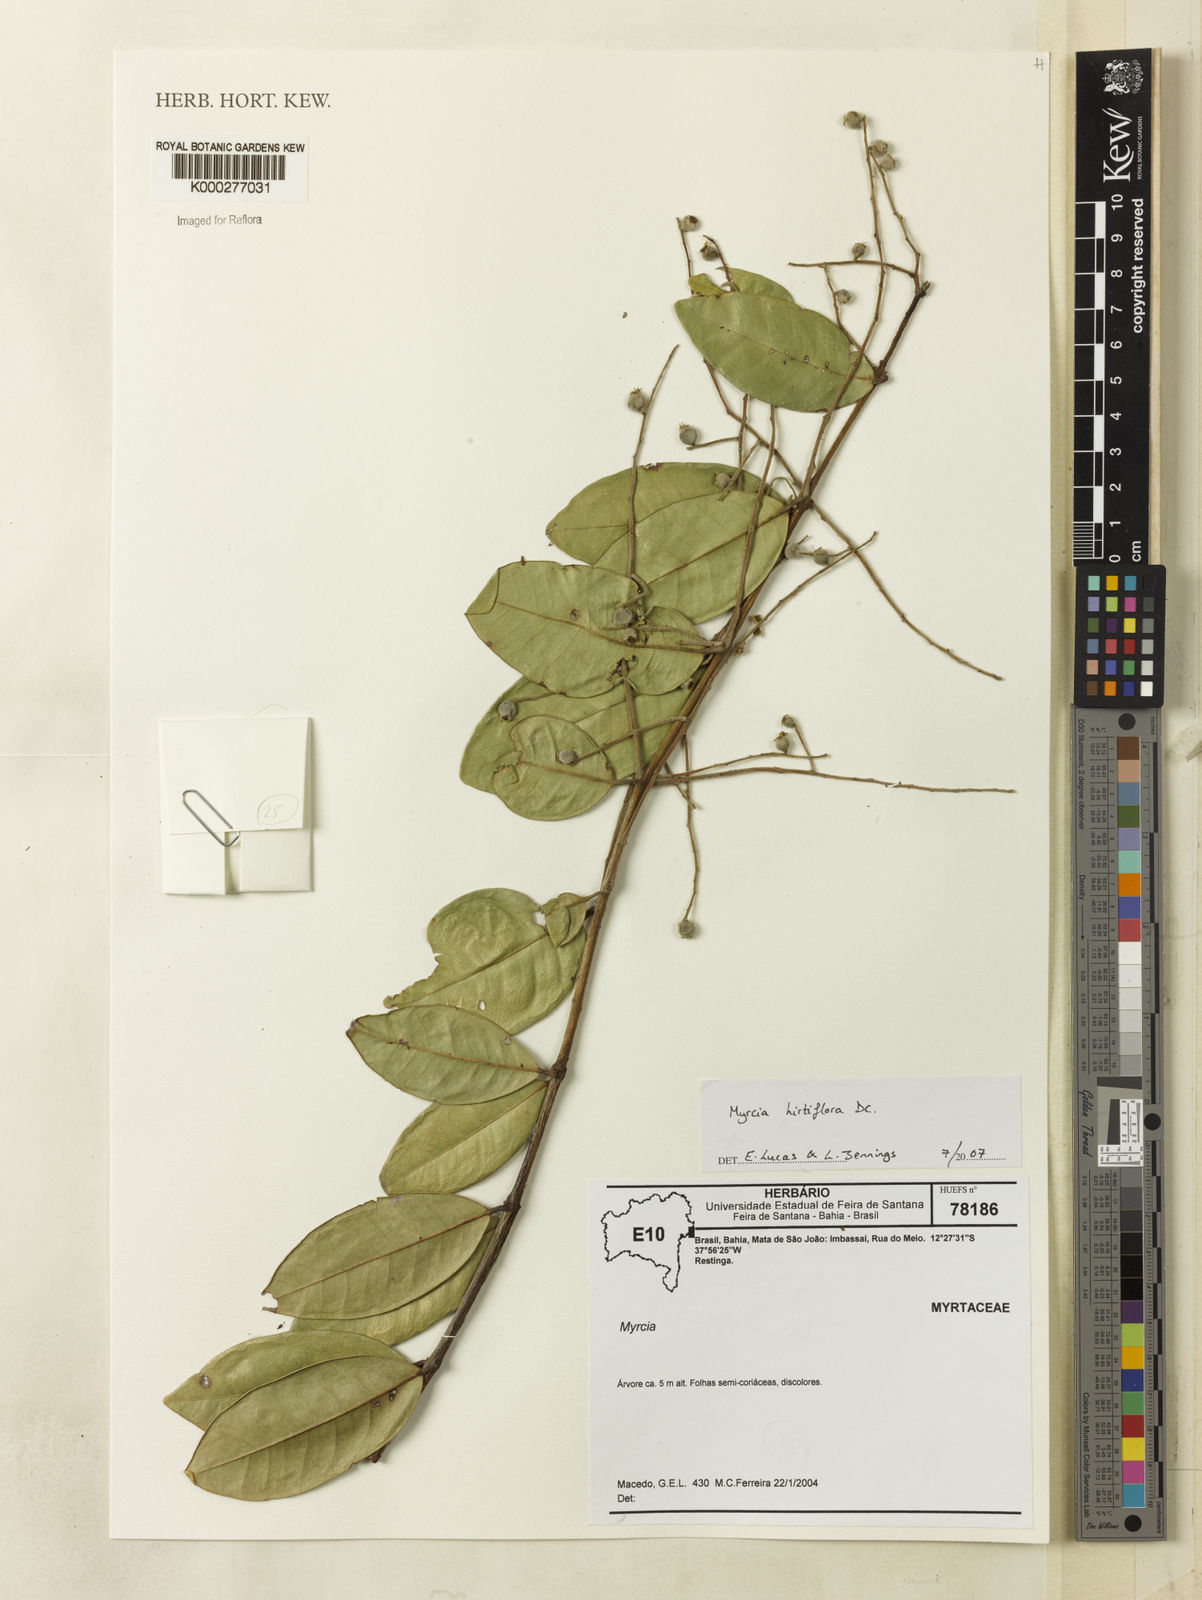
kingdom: Plantae
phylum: Tracheophyta
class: Magnoliopsida
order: Myrtales
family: Myrtaceae
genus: Myrcia
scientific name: Myrcia
